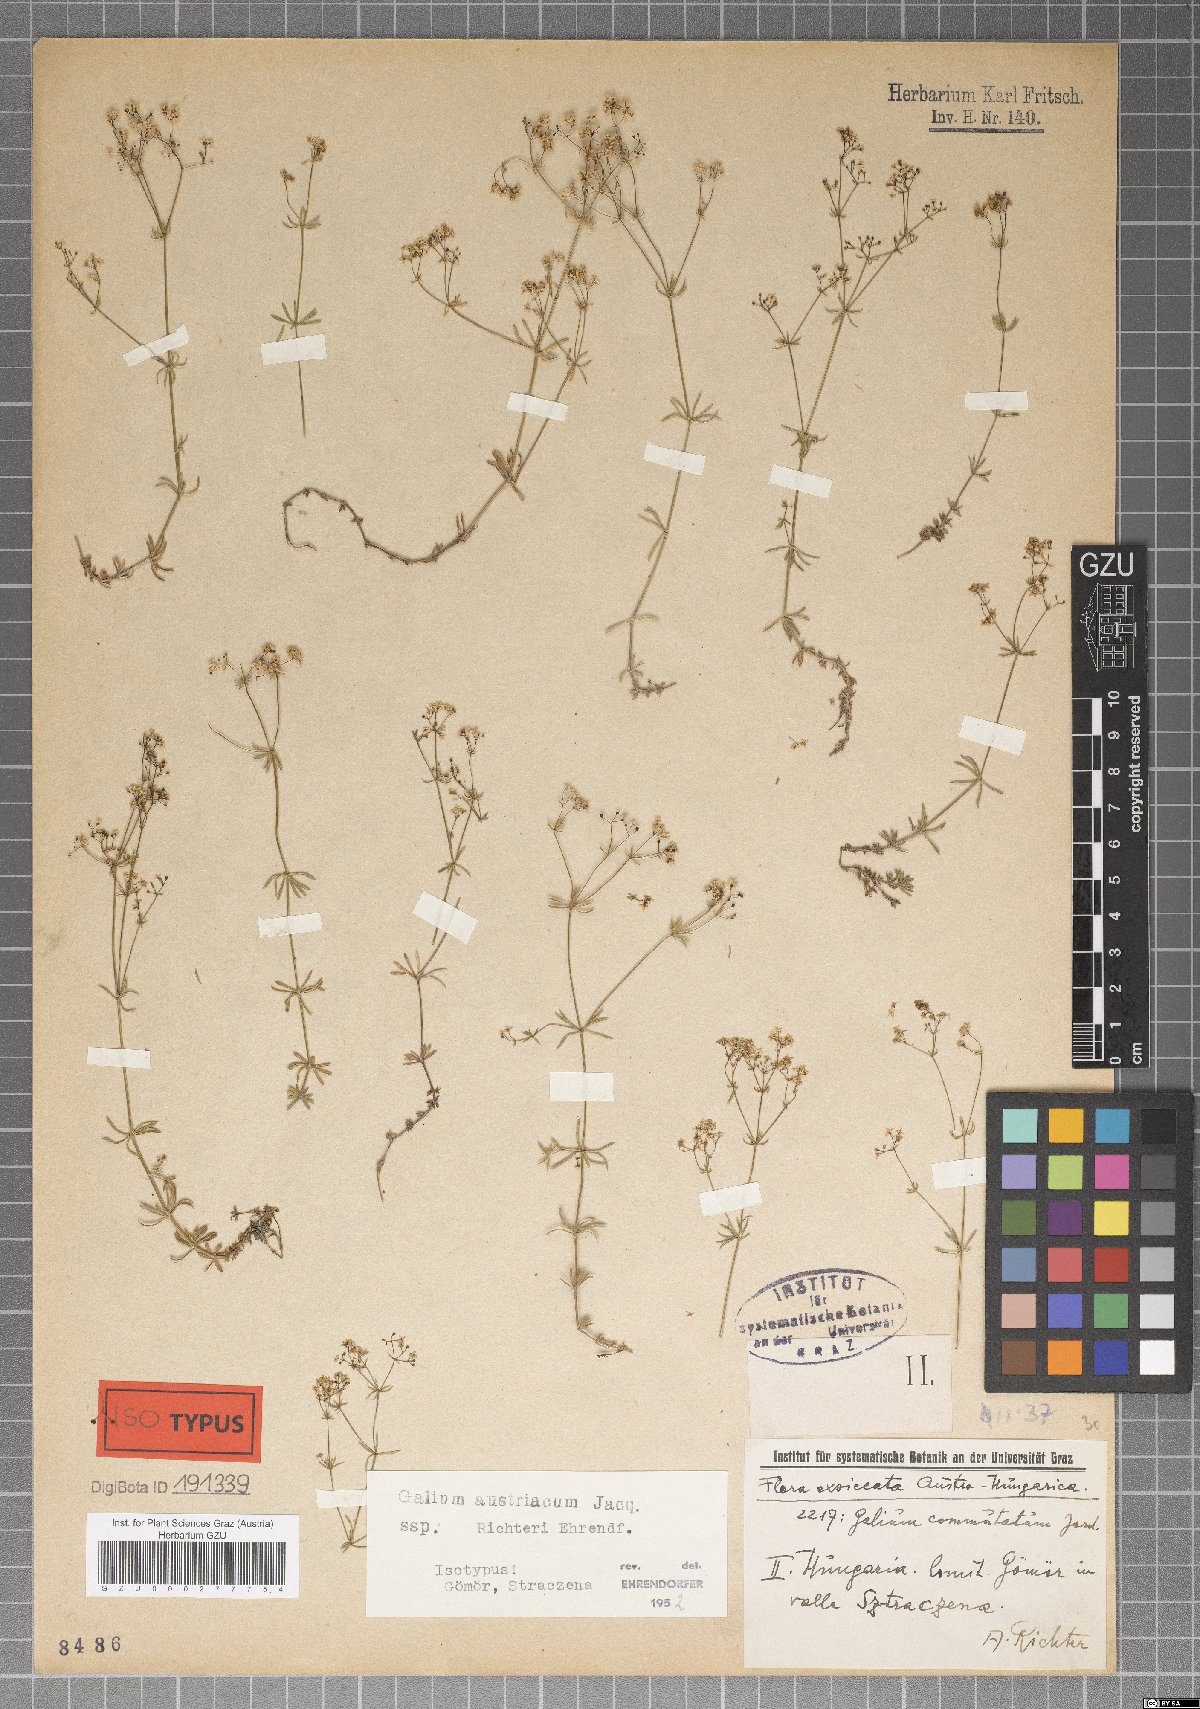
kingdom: Plantae
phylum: Tracheophyta
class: Magnoliopsida
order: Gentianales
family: Rubiaceae
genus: Galium
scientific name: Galium austriacum
